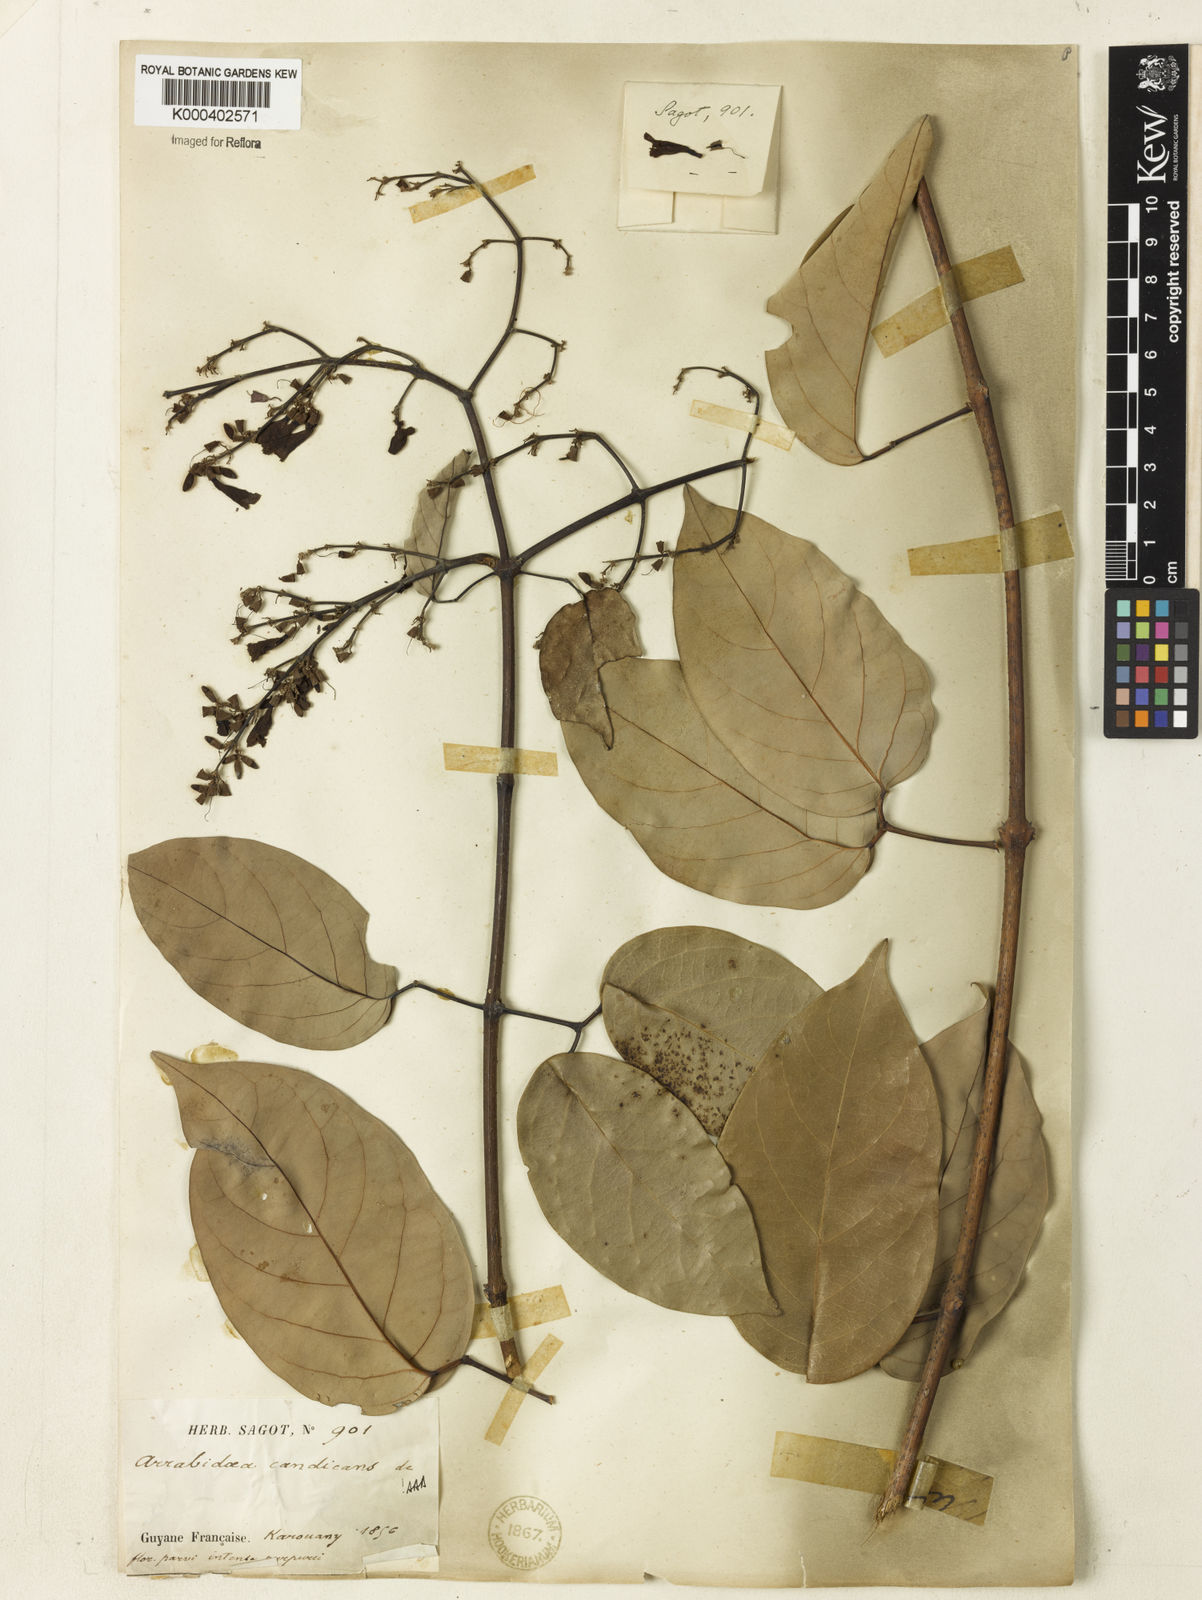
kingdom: Plantae
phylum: Tracheophyta
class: Magnoliopsida
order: Lamiales
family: Bignoniaceae
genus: Fridericia
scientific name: Fridericia candicans
